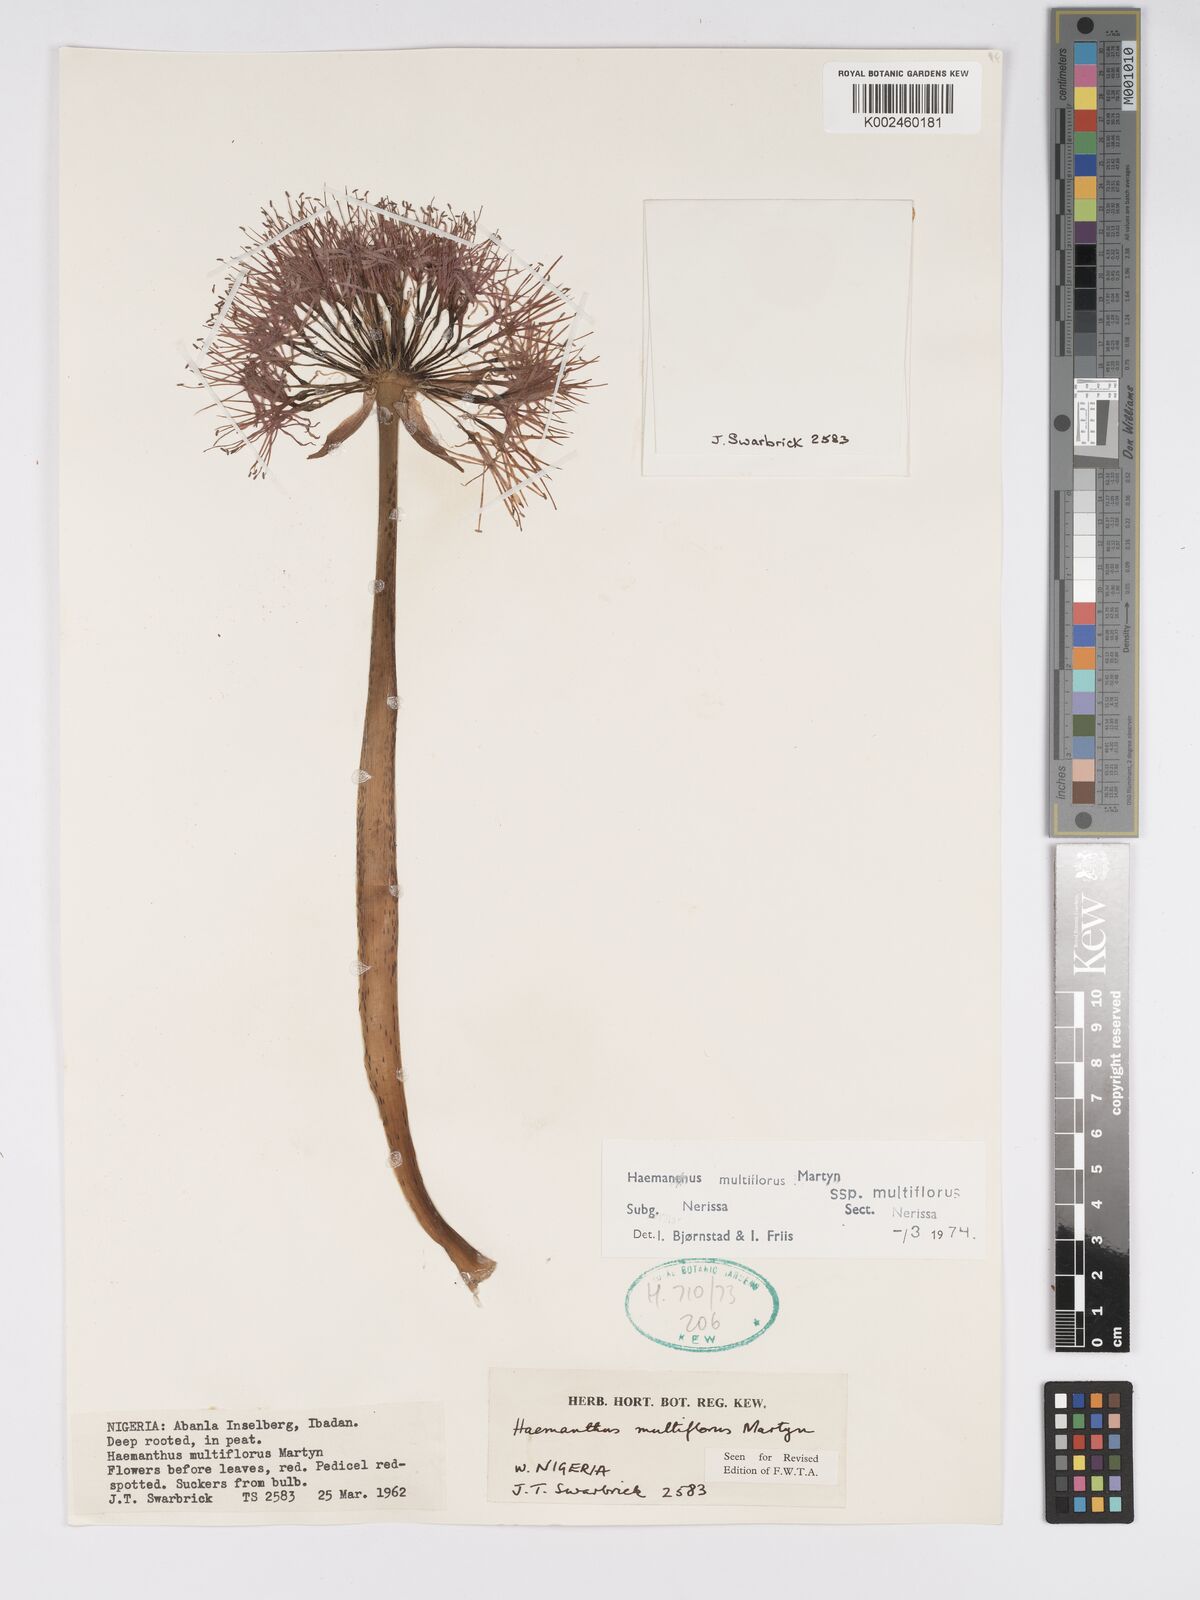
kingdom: Plantae
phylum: Tracheophyta
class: Liliopsida
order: Asparagales
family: Amaryllidaceae
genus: Scadoxus
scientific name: Scadoxus multiflorus
